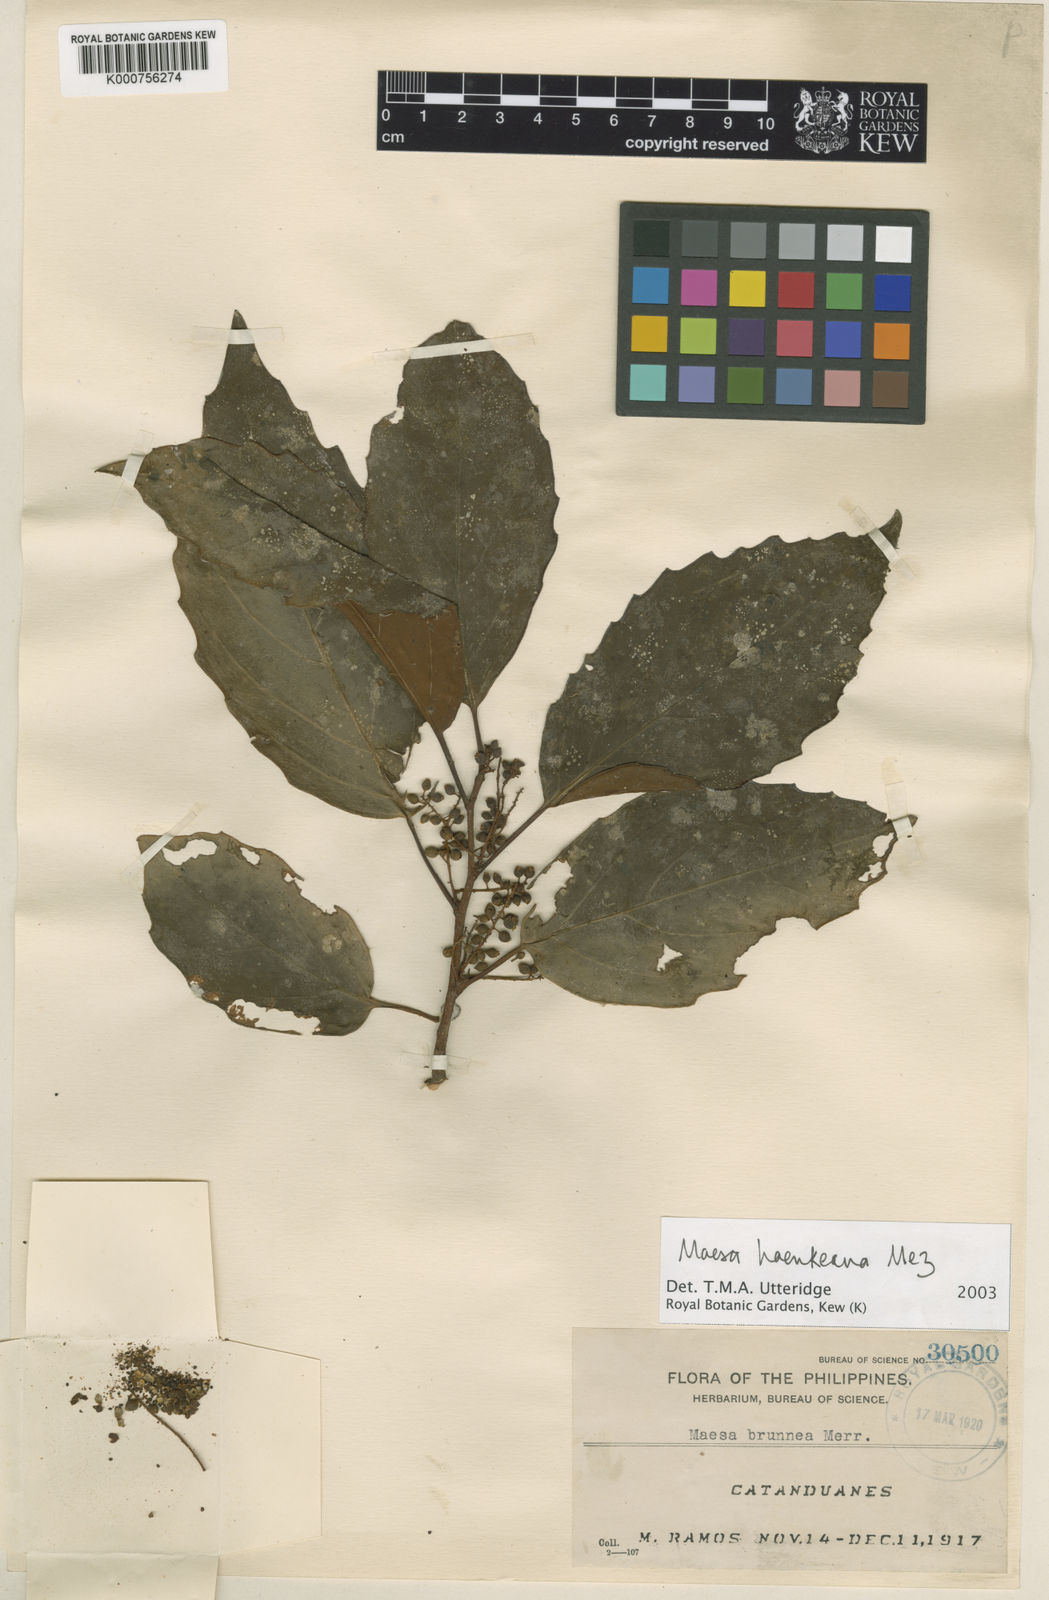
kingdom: Plantae
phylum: Tracheophyta
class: Magnoliopsida
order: Ericales
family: Primulaceae
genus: Maesa
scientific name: Maesa haenkeana
